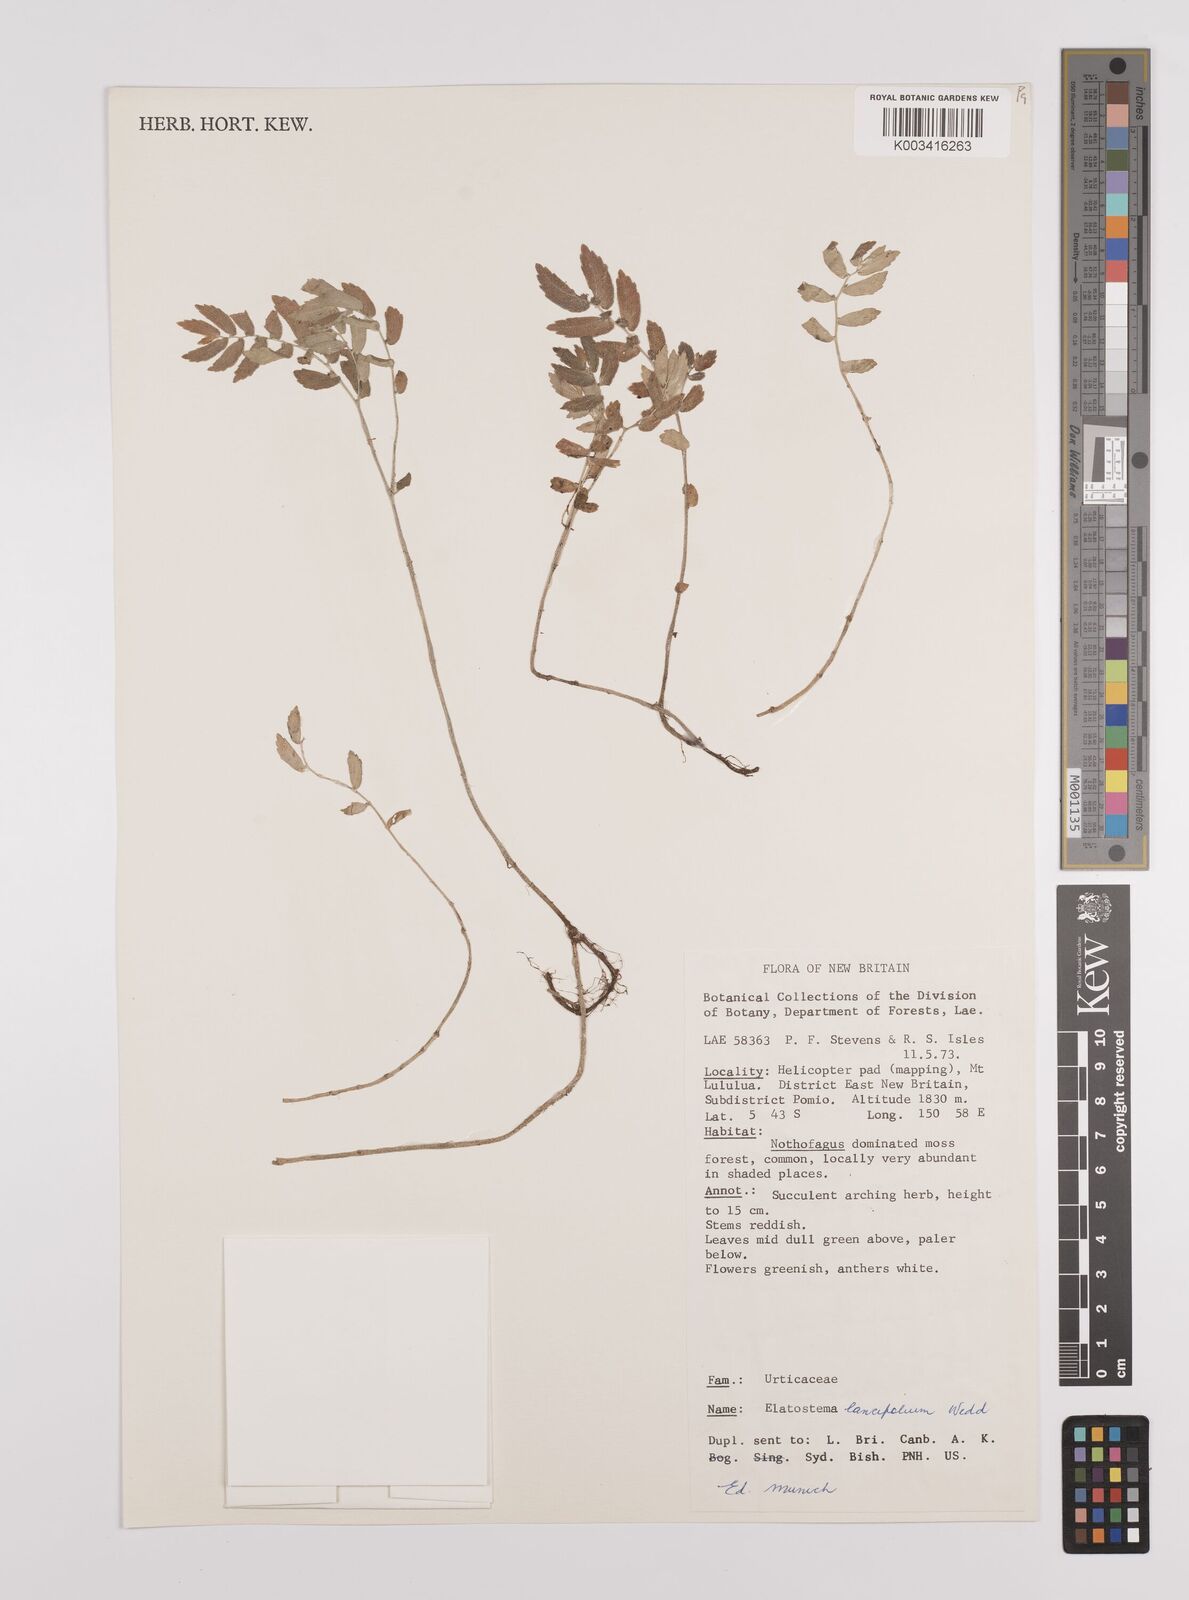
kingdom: Plantae
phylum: Tracheophyta
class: Magnoliopsida
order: Rosales
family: Urticaceae
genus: Elatostema
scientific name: Elatostema lancifolium
